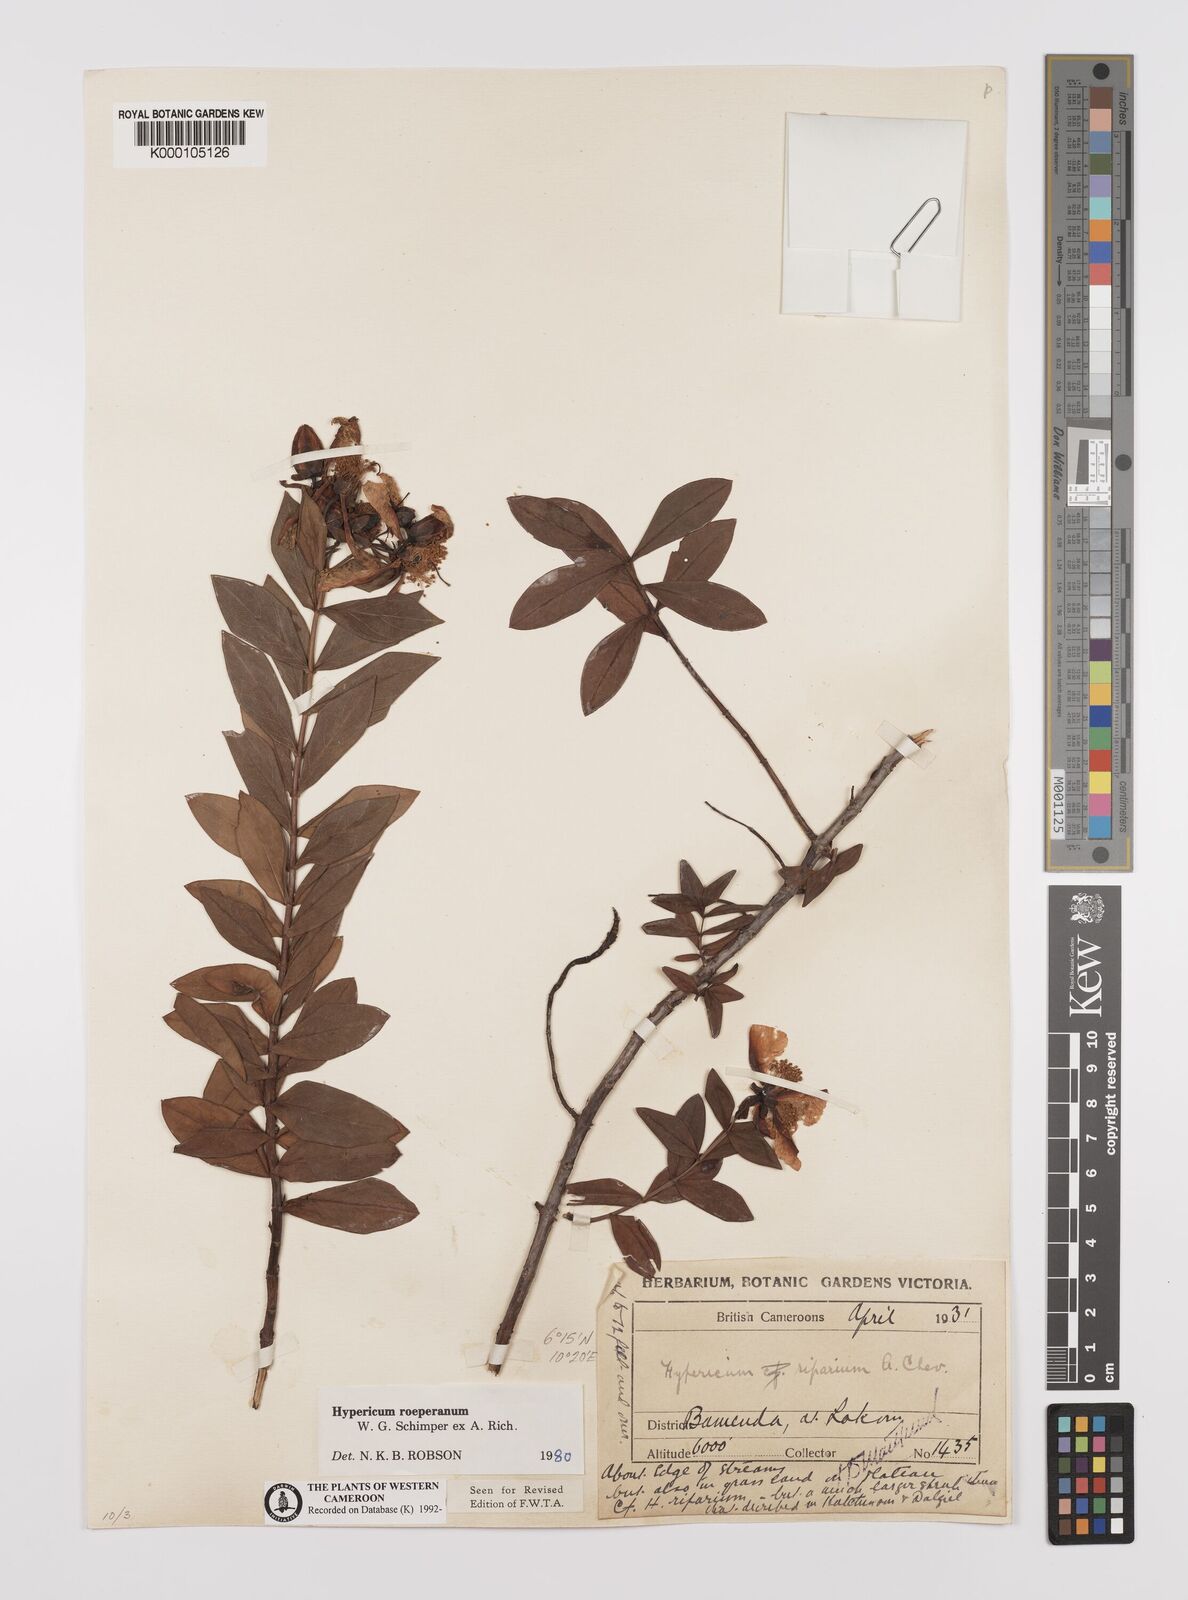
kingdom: Plantae
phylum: Tracheophyta
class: Magnoliopsida
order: Malpighiales
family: Hypericaceae
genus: Hypericum
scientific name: Hypericum
